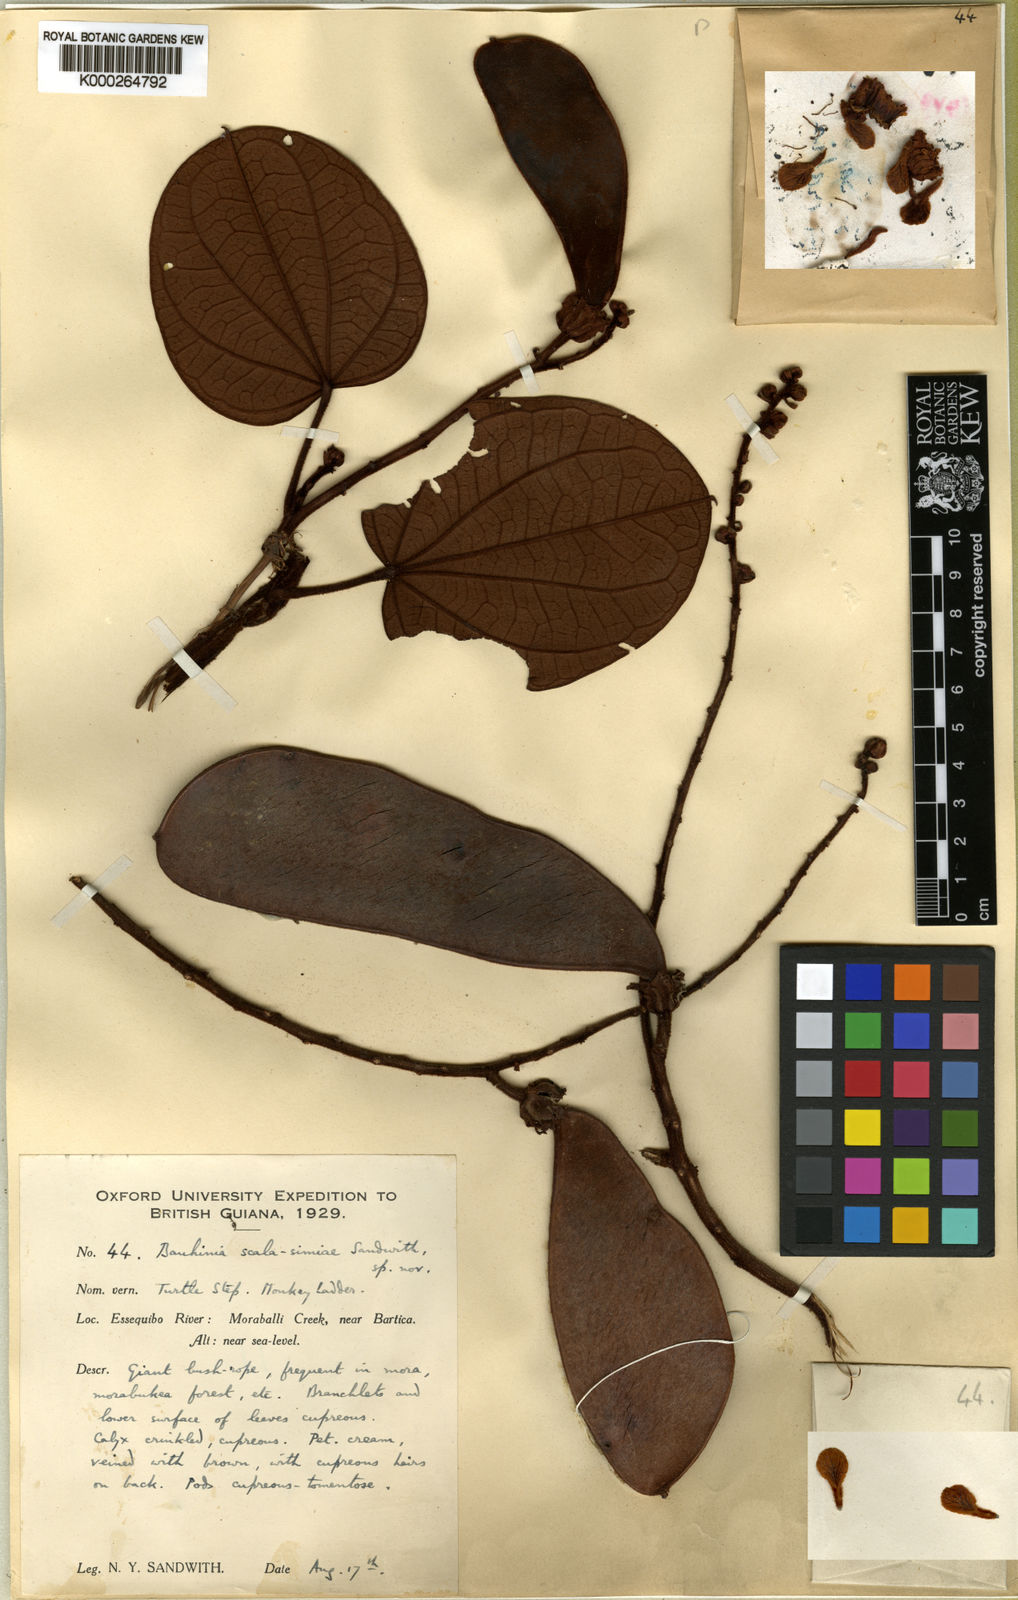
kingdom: Plantae
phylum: Tracheophyta
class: Magnoliopsida
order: Fabales
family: Fabaceae
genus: Schnella
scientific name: Schnella scala-simiae
